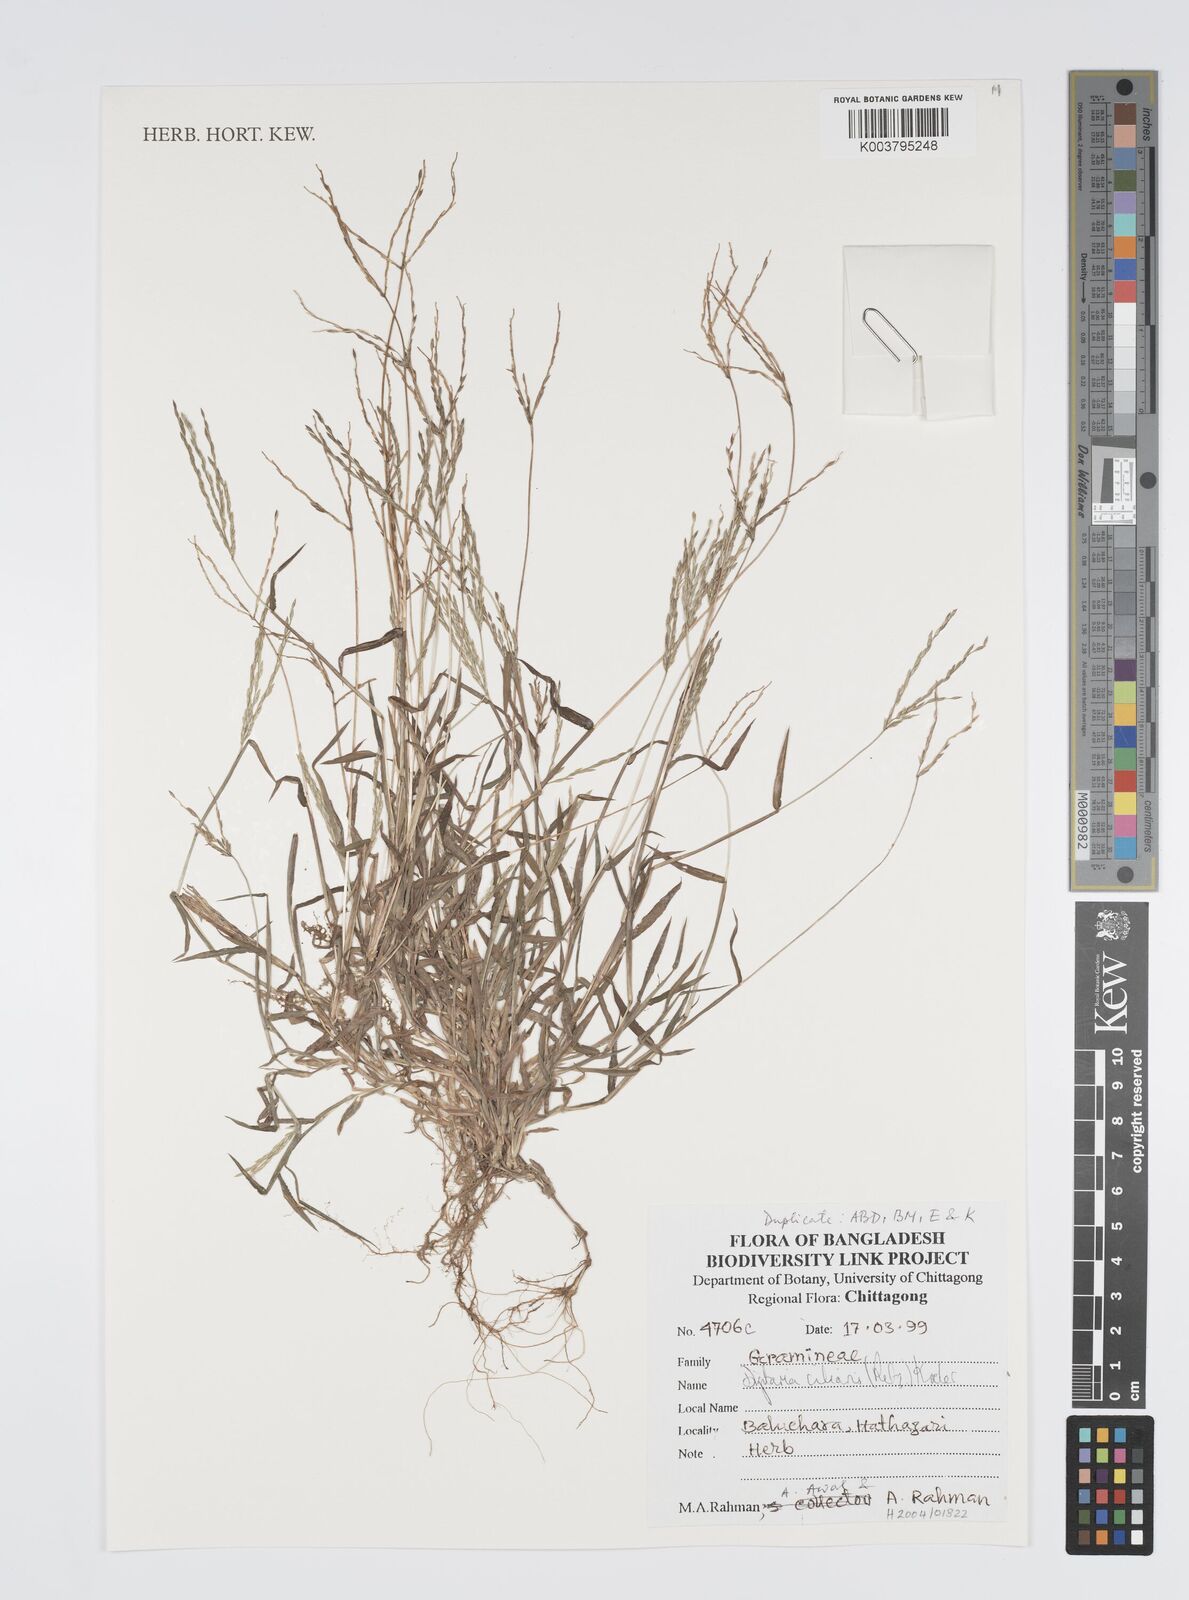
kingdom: Plantae
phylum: Tracheophyta
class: Liliopsida
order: Poales
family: Poaceae
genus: Digitaria
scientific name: Digitaria ciliaris
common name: Tropical finger-grass
